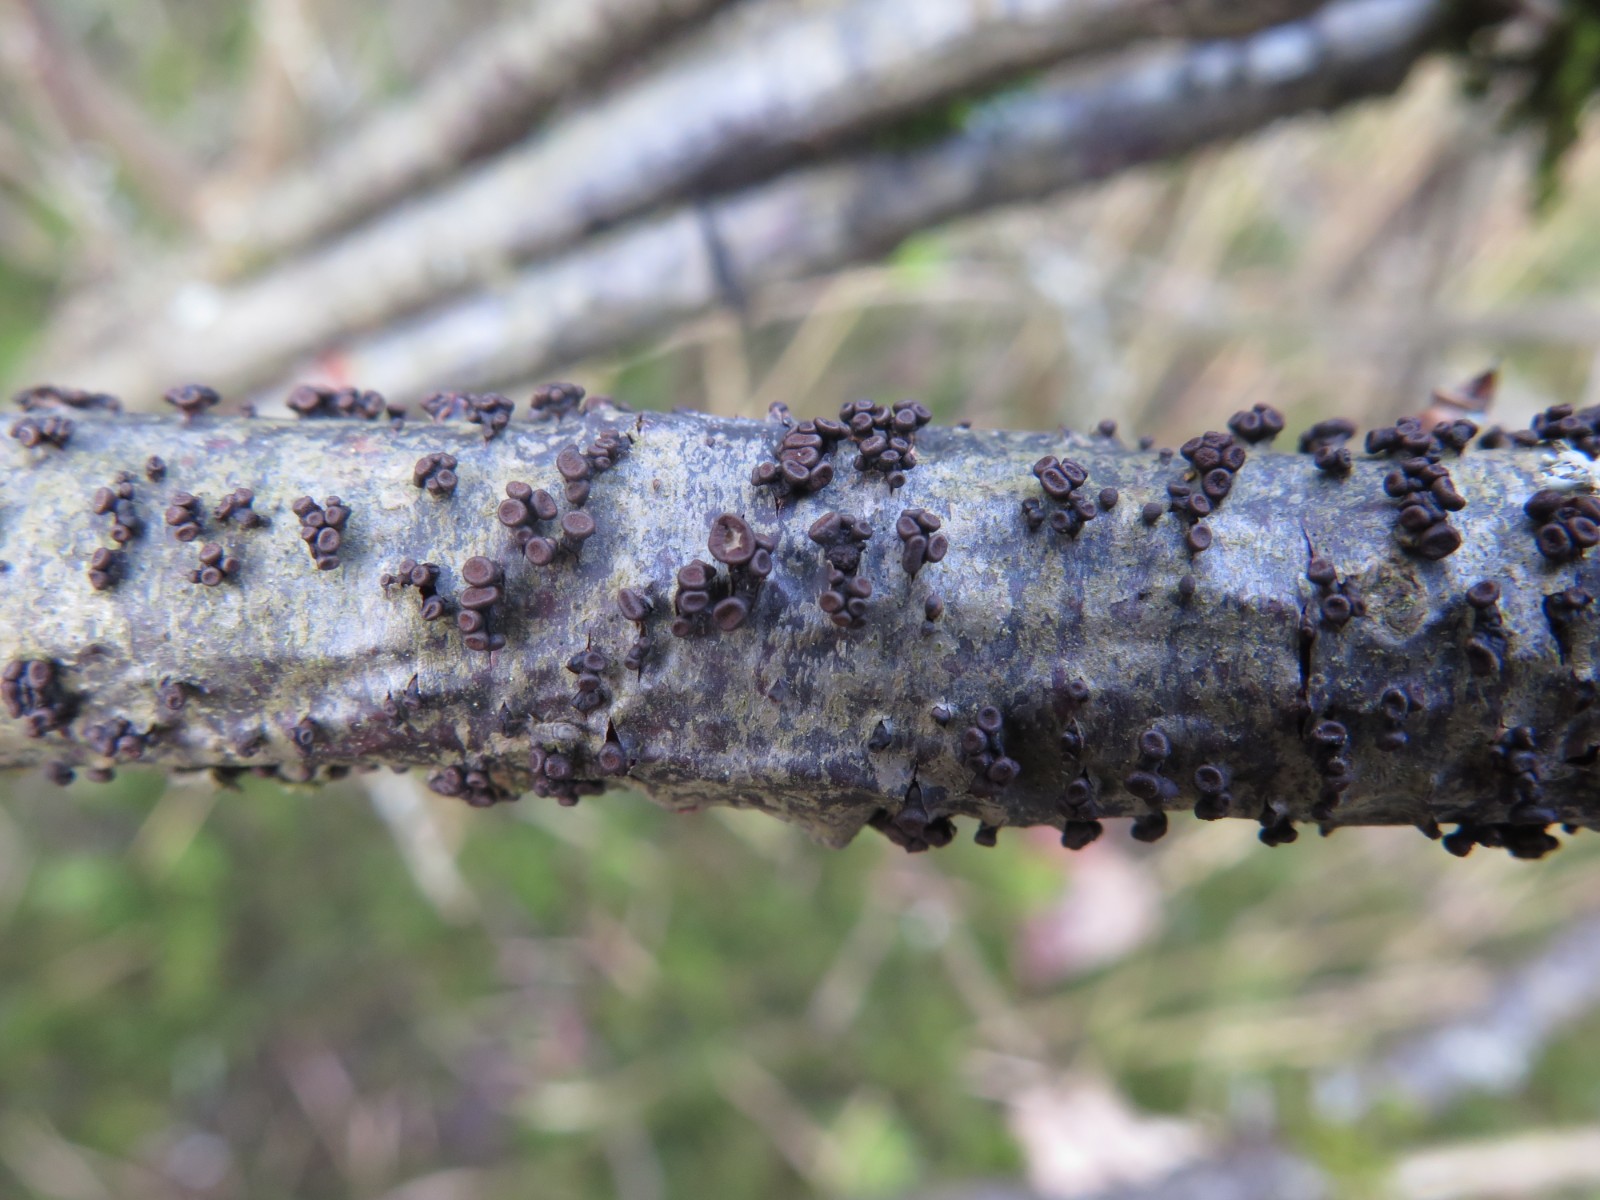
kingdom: Fungi
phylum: Ascomycota
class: Leotiomycetes
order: Helotiales
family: Godroniaceae
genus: Godronia
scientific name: Godronia ribis
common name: ribs-urneskive
